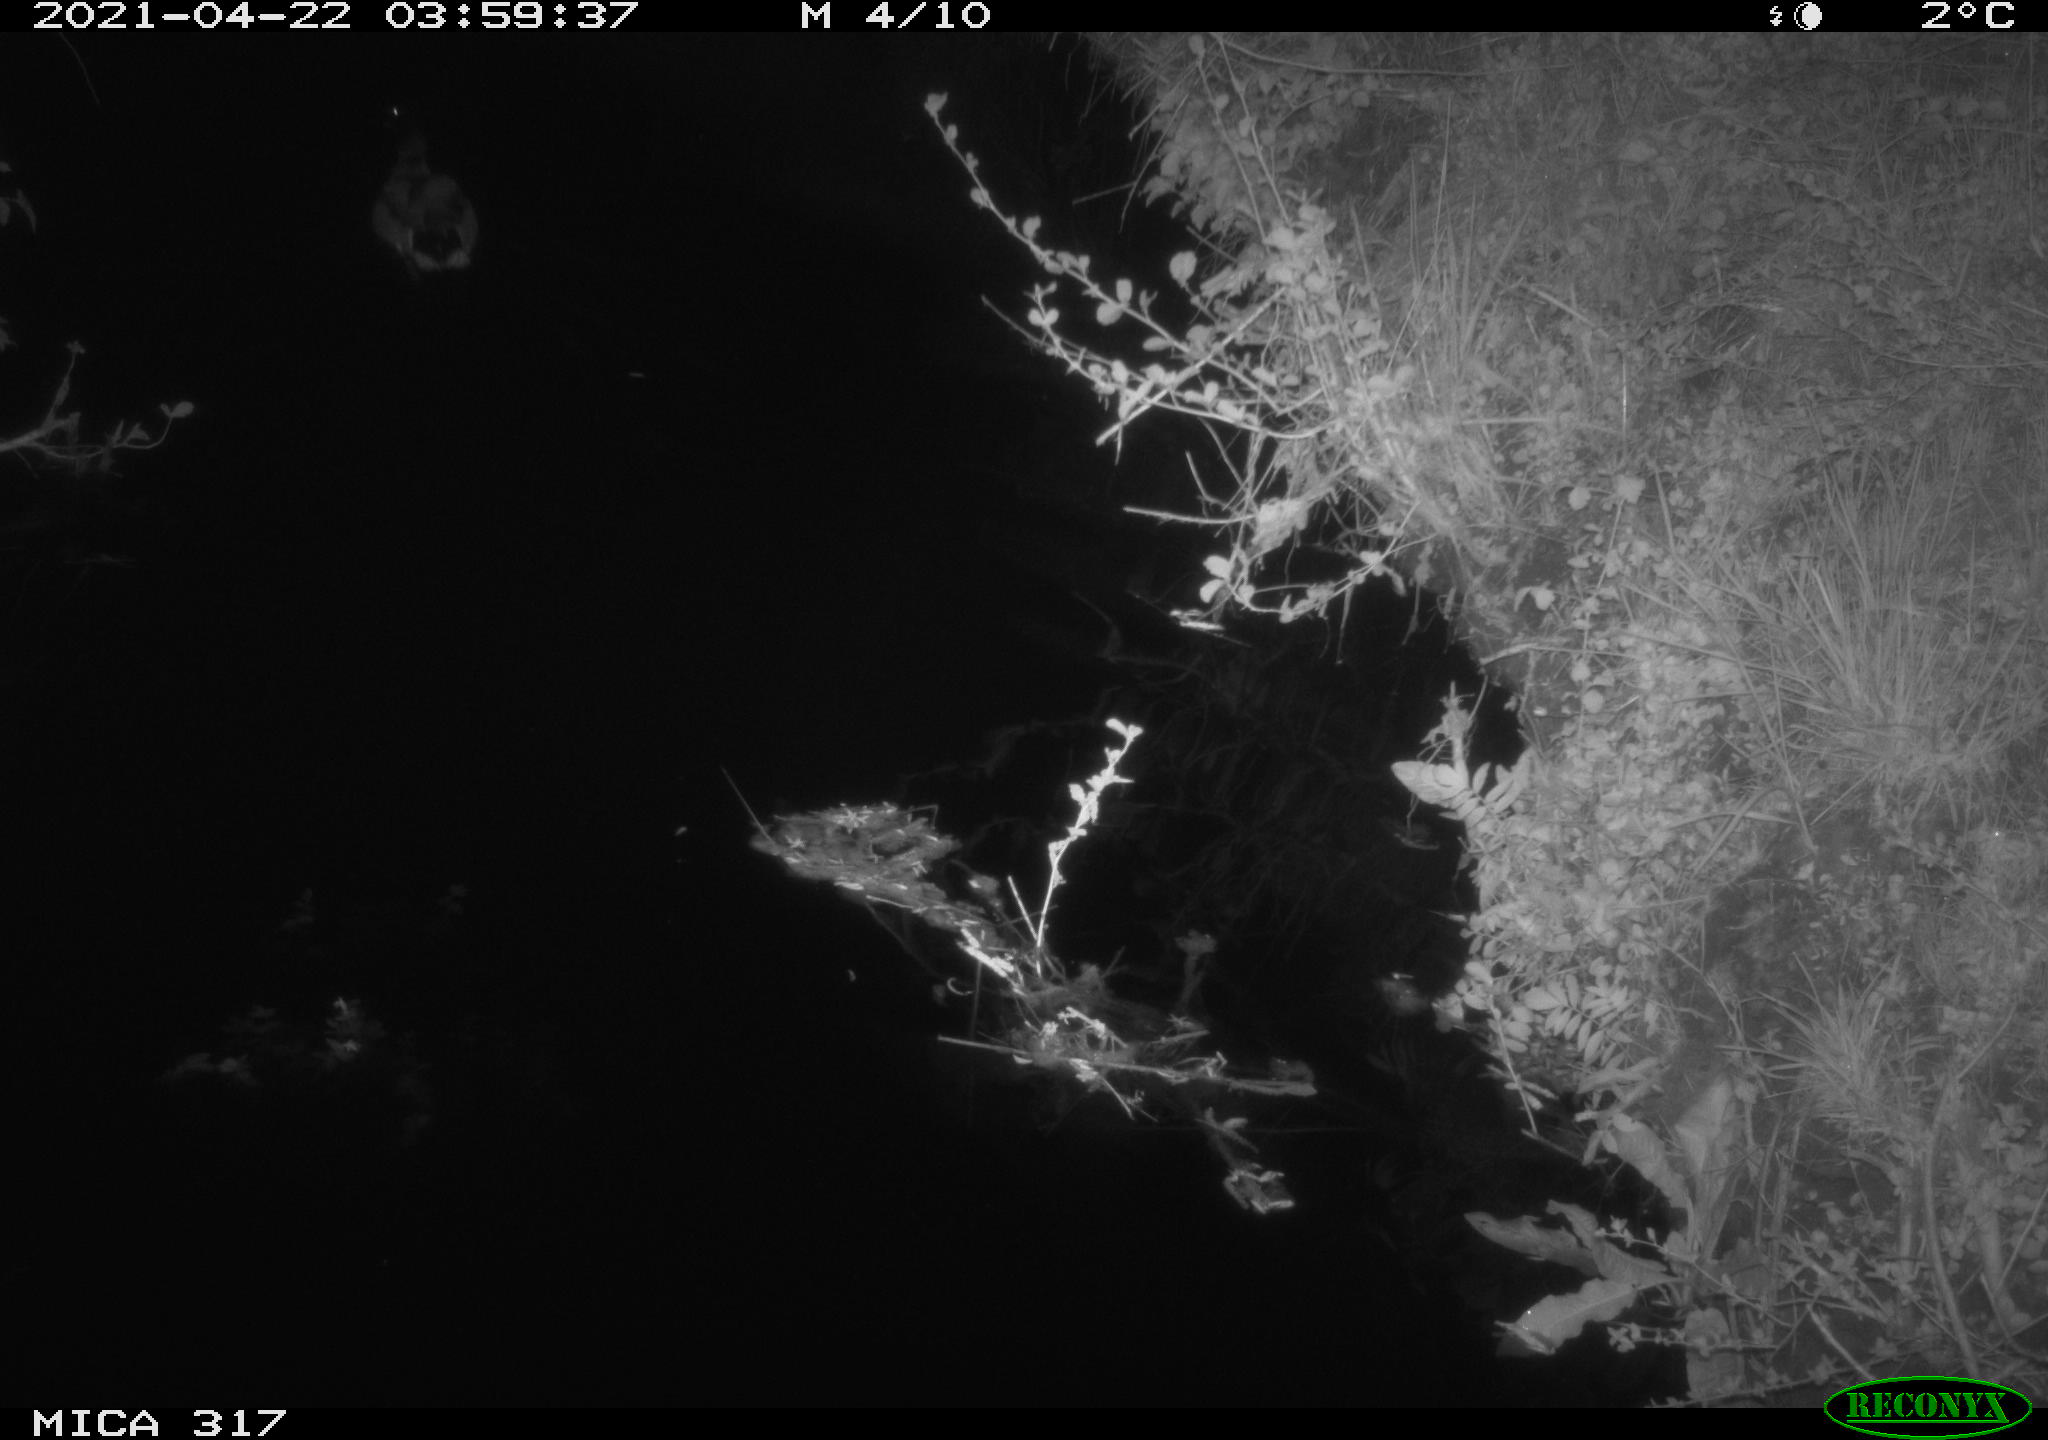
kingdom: Animalia
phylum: Chordata
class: Aves
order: Anseriformes
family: Anatidae
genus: Anas
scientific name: Anas
